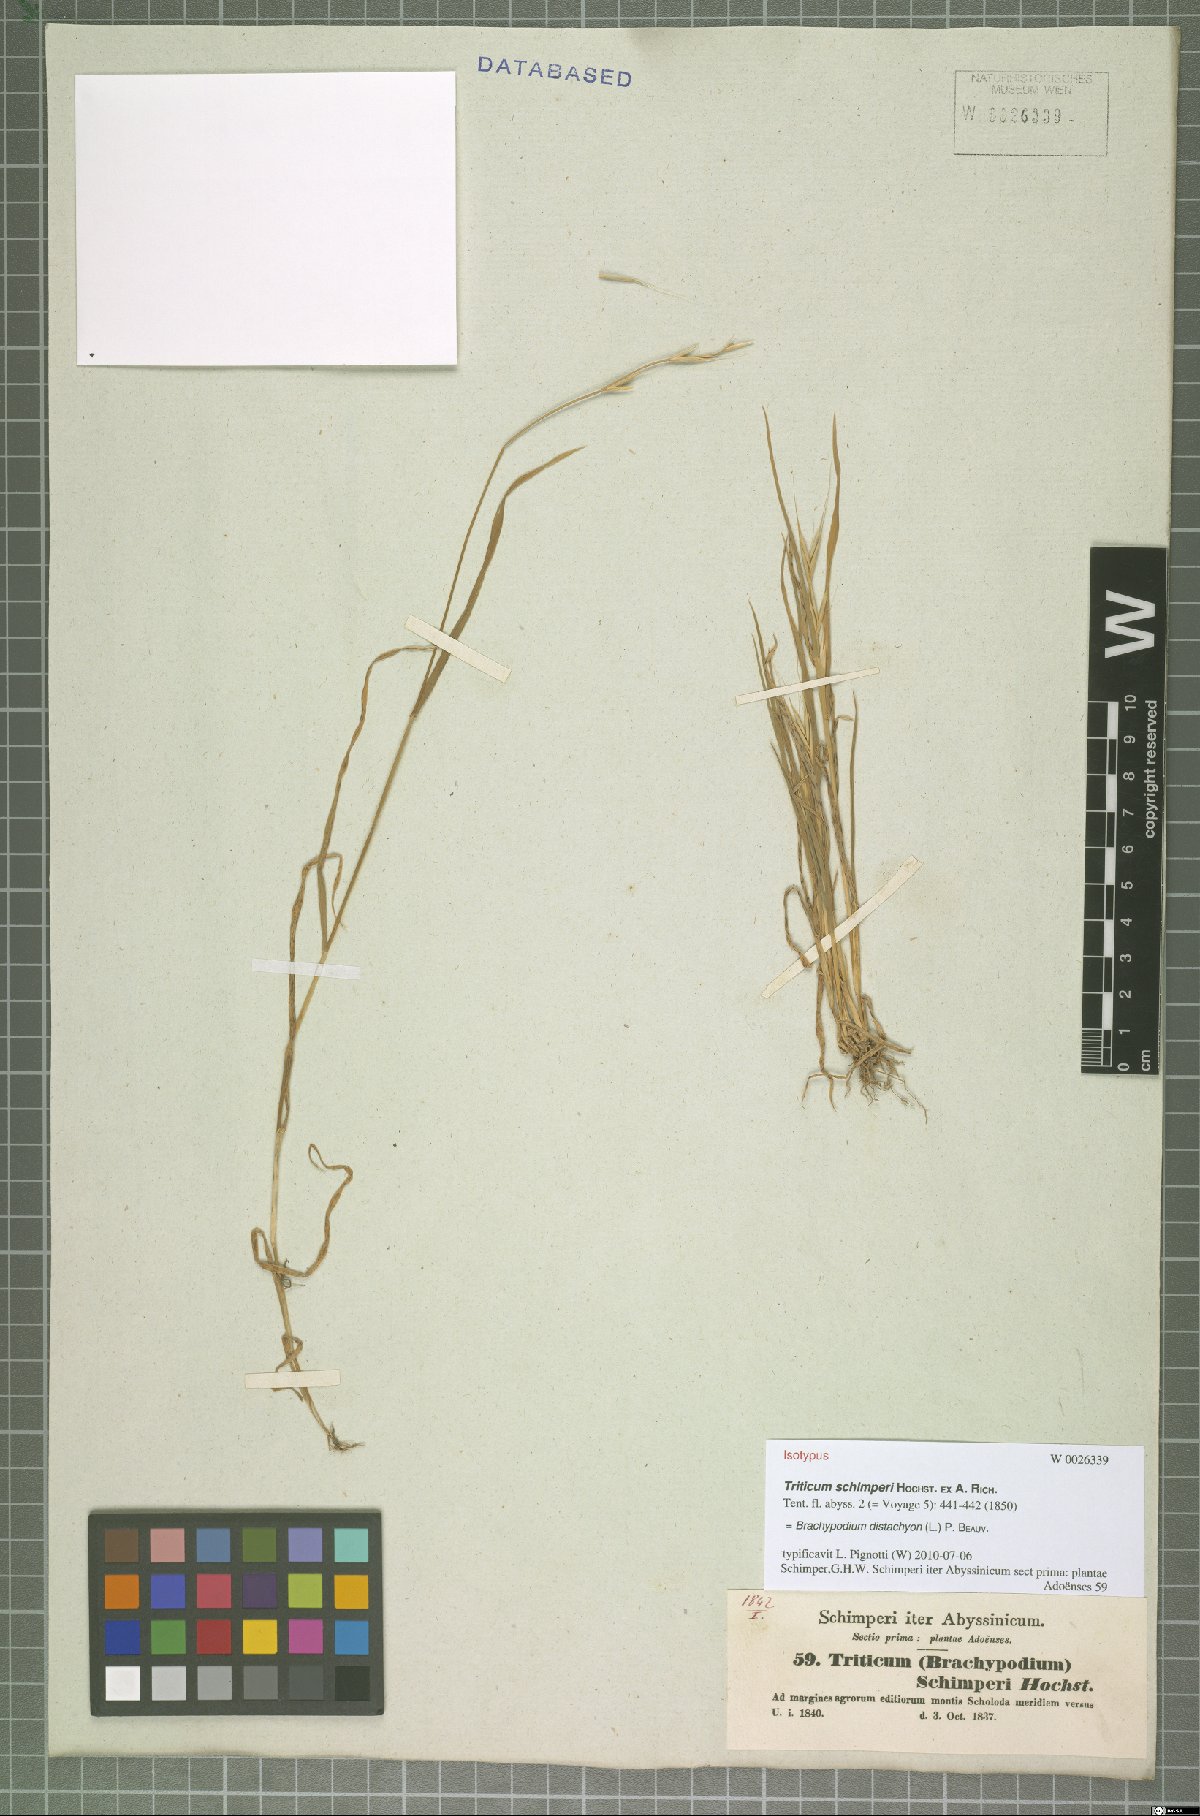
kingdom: Plantae
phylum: Tracheophyta
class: Liliopsida
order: Poales
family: Poaceae
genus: Brachypodium
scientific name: Brachypodium distachyon
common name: Stiff brome
